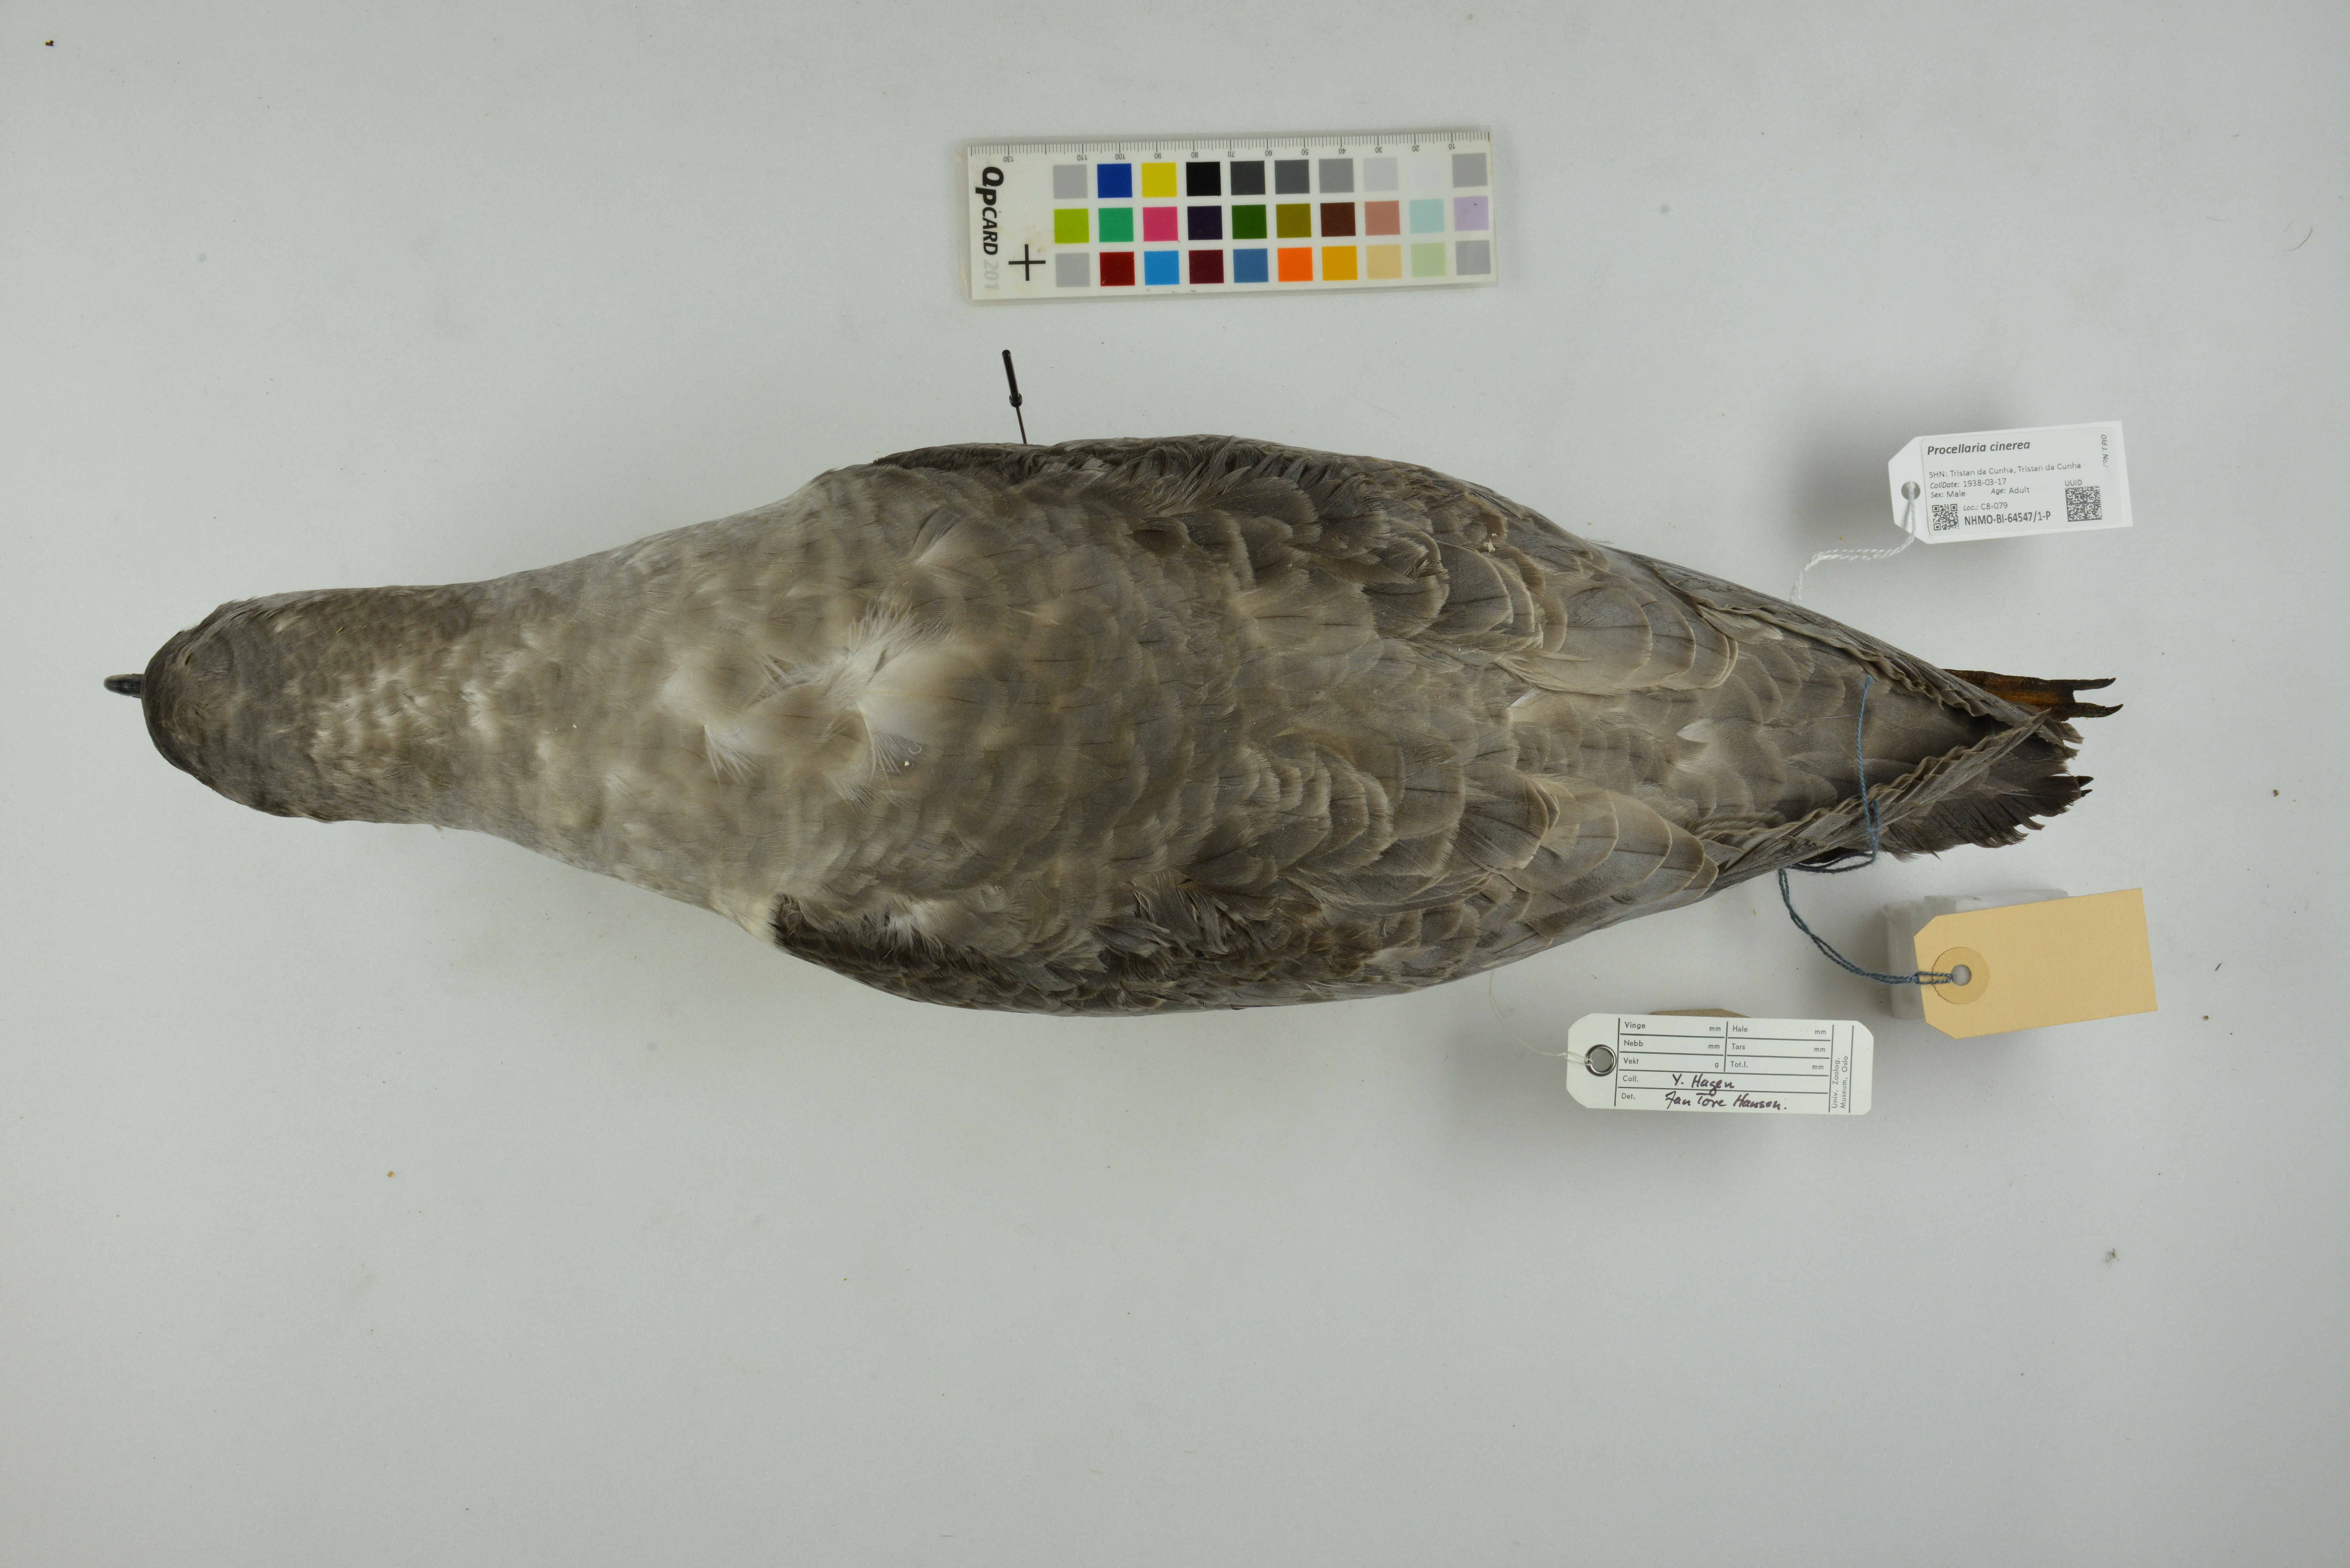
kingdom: Animalia
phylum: Chordata
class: Aves
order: Procellariiformes
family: Procellariidae
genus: Procellaria
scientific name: Procellaria cinerea
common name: Grey petrel
